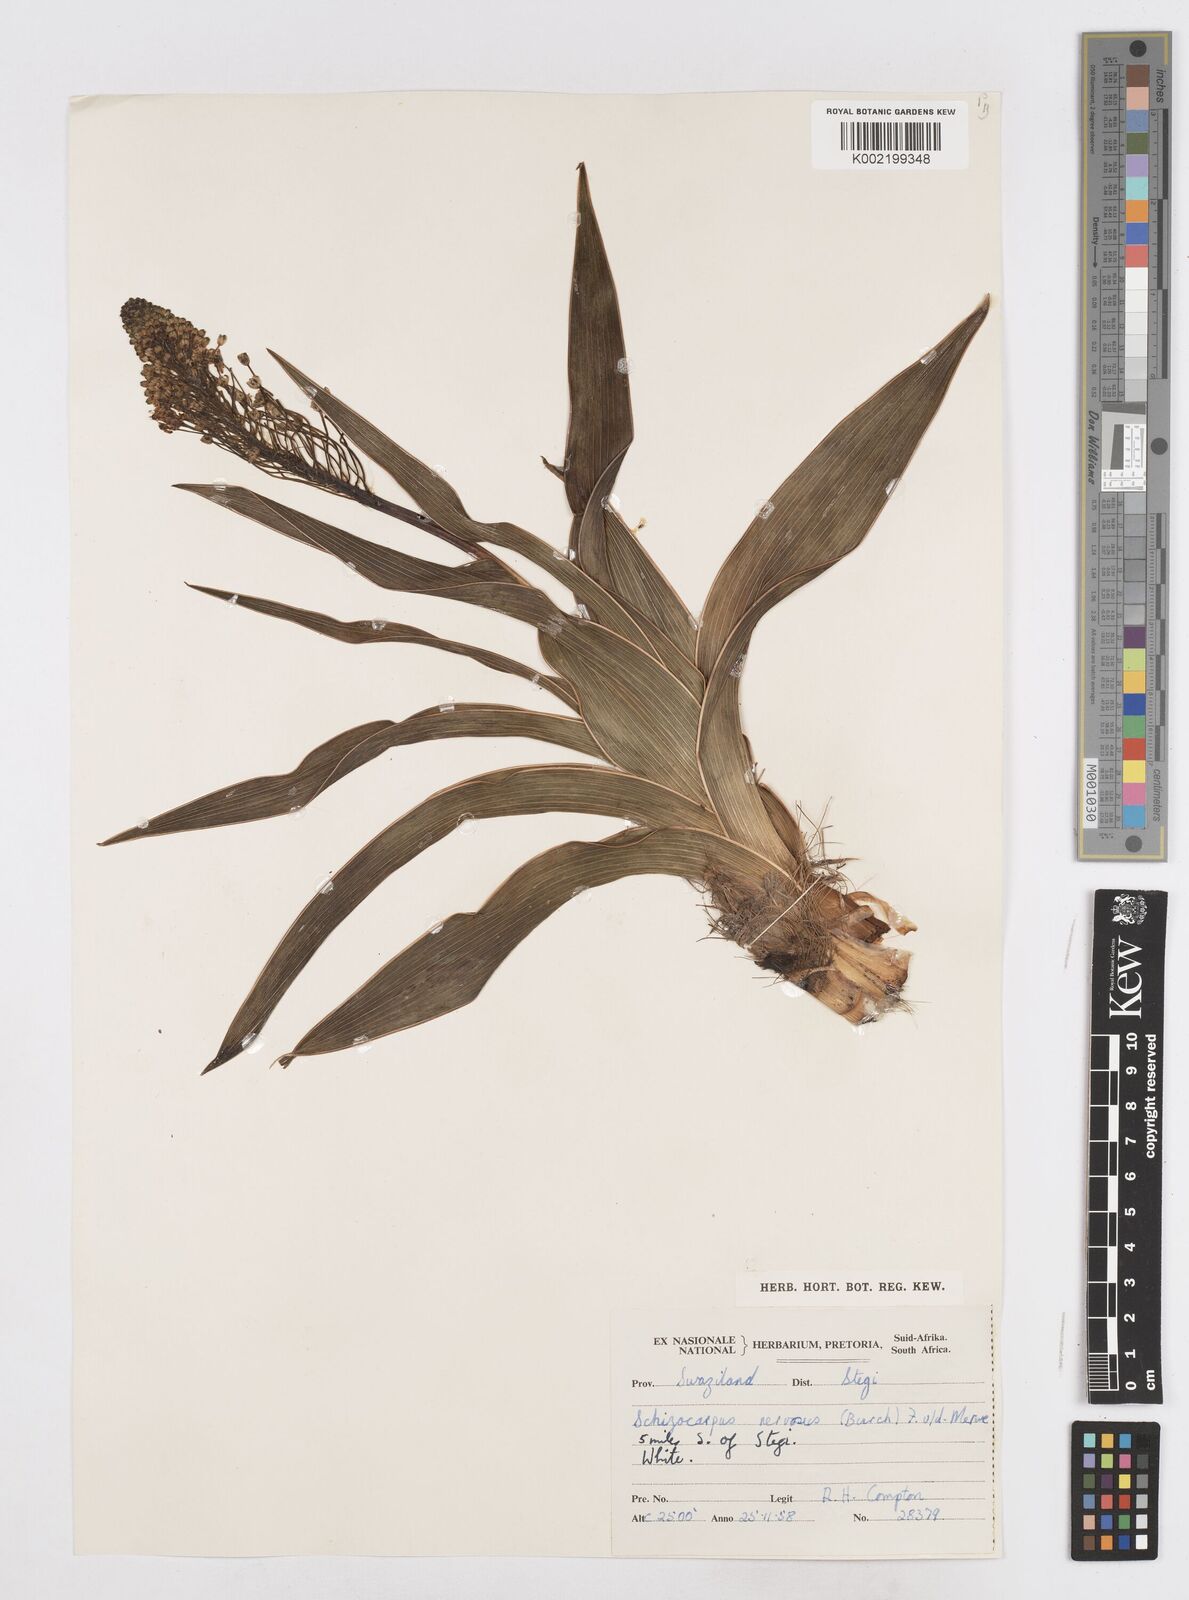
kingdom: Plantae
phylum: Tracheophyta
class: Liliopsida
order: Asparagales
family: Asparagaceae
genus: Schizocarphus
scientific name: Schizocarphus nervosus
